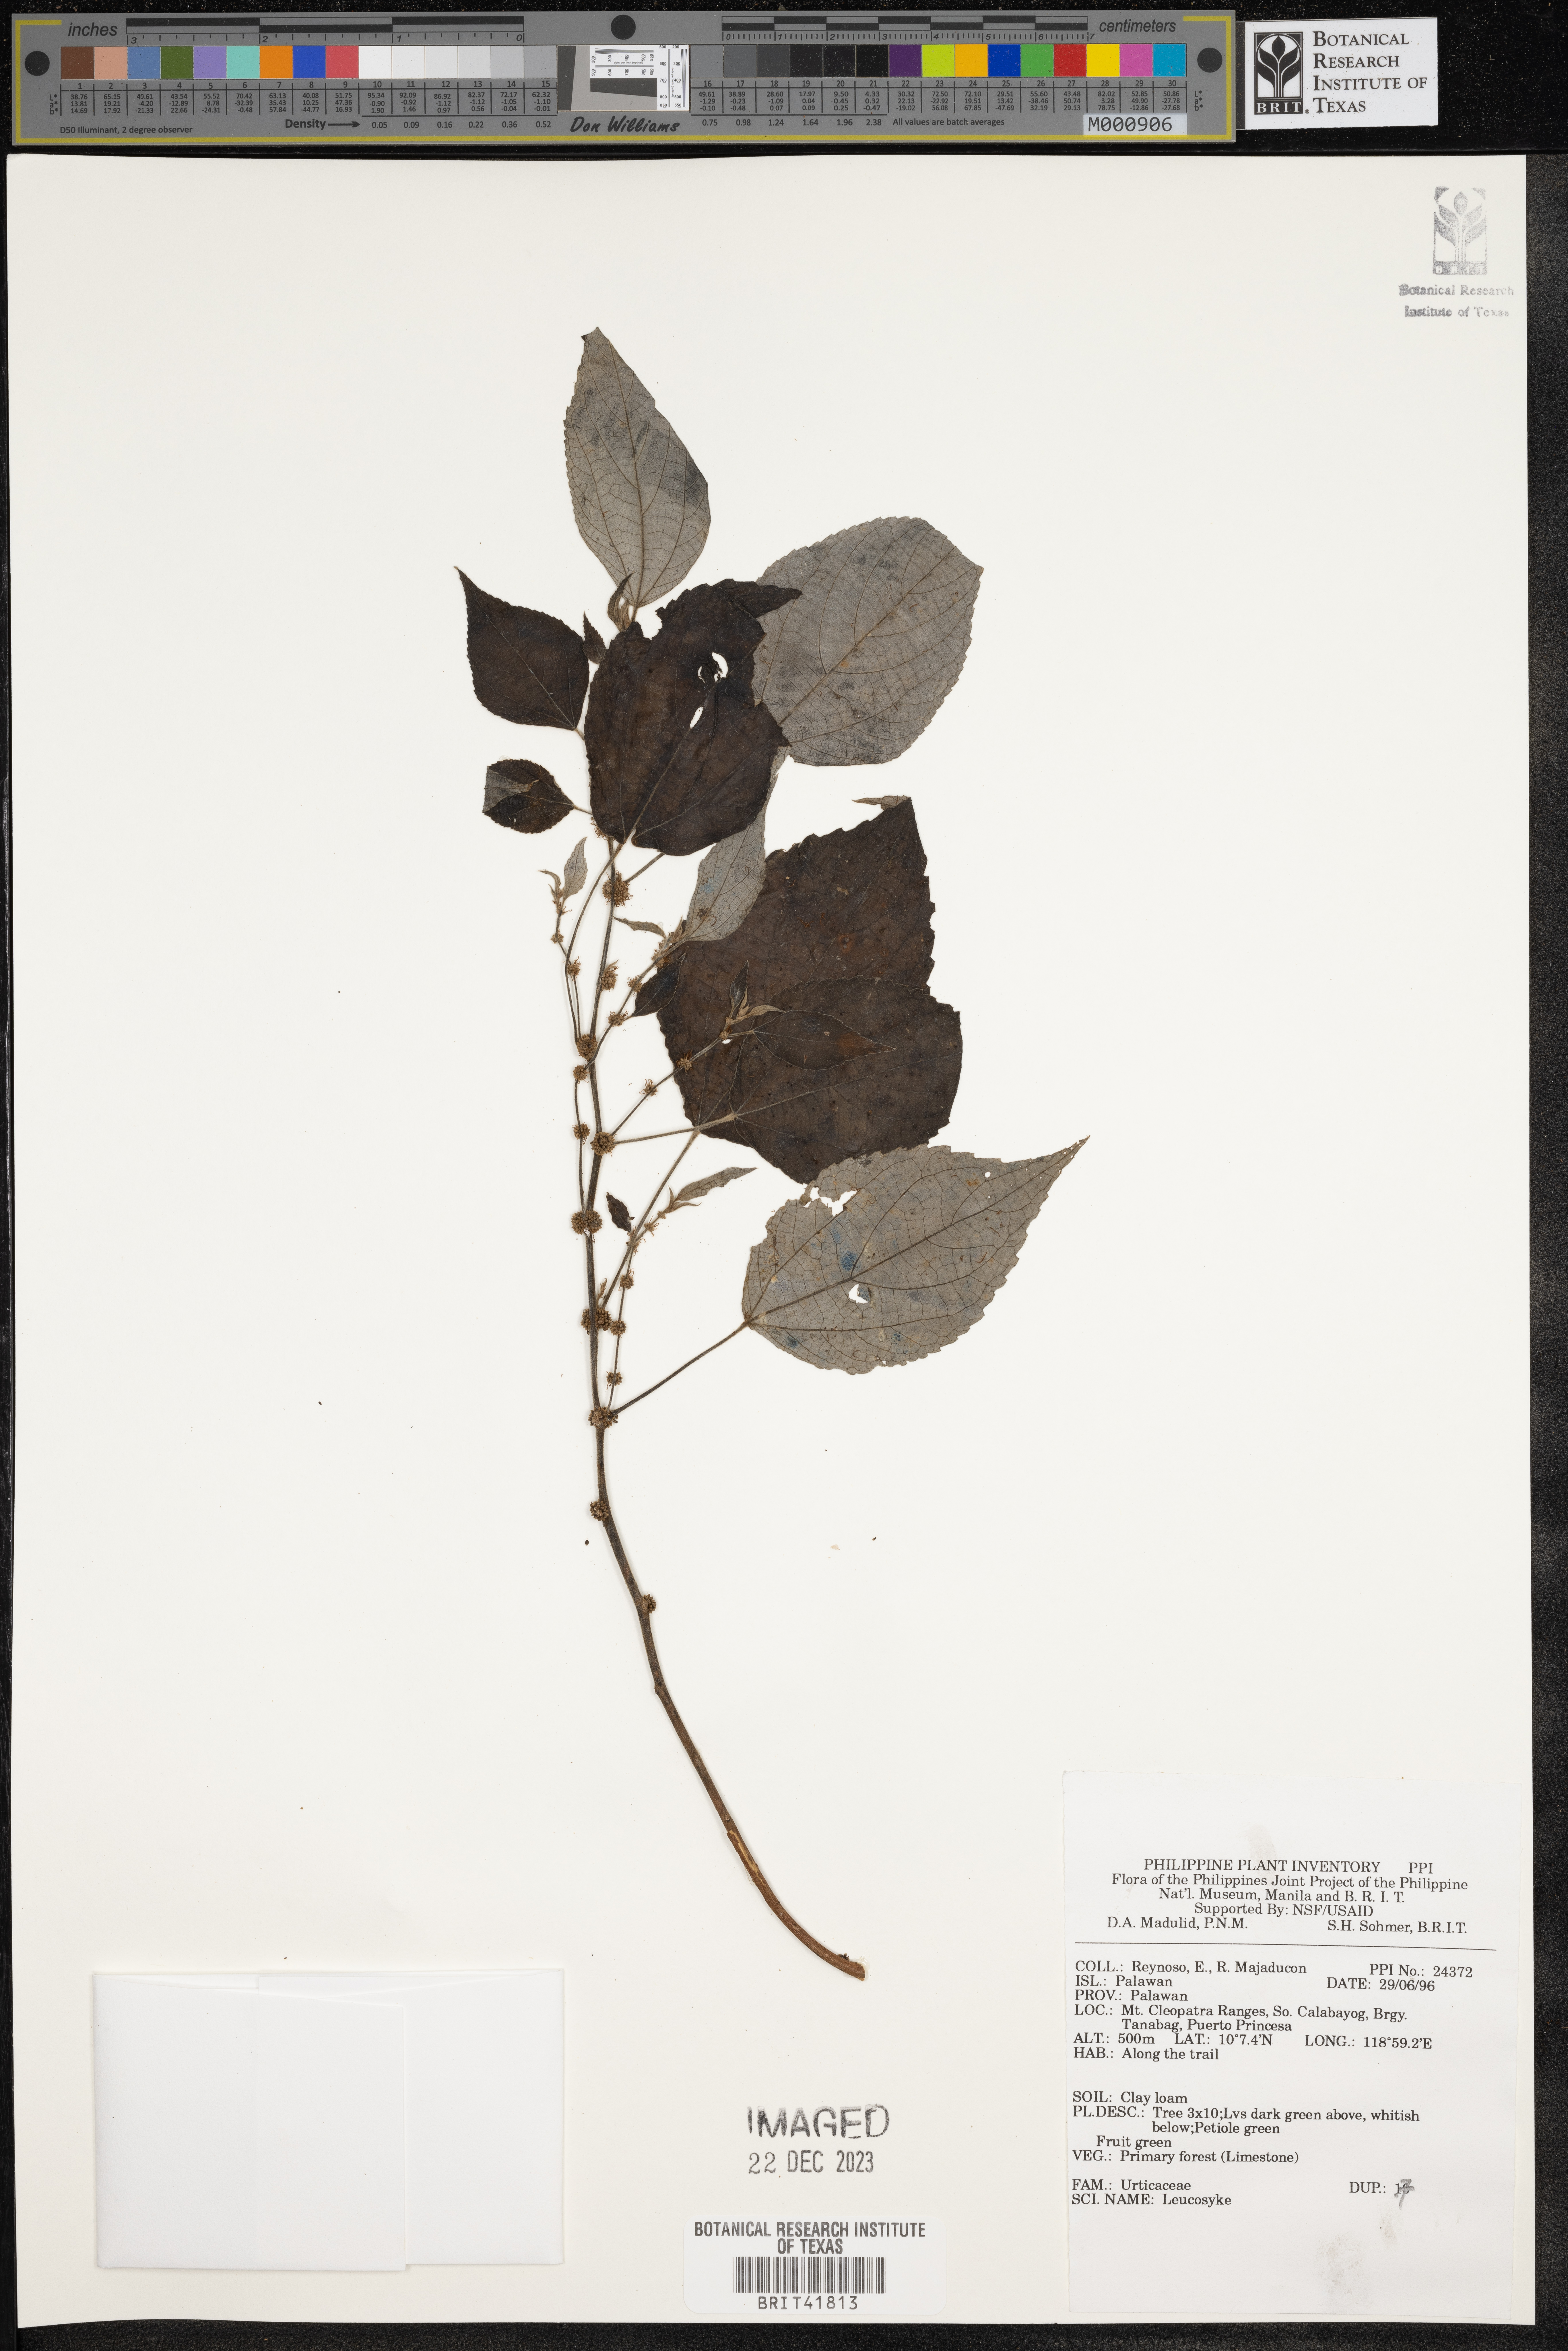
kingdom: Plantae
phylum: Tracheophyta
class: Magnoliopsida
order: Rosales
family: Urticaceae
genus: Leucosyke
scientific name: Leucosyke
